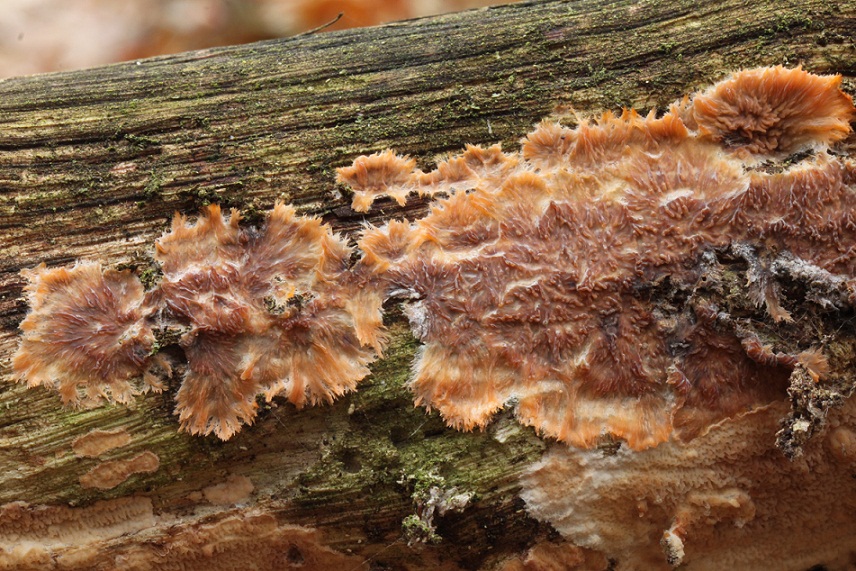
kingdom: Fungi
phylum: Basidiomycota
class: Agaricomycetes
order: Polyporales
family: Meruliaceae
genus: Phlebia
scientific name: Phlebia radiata
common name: stråle-åresvamp
